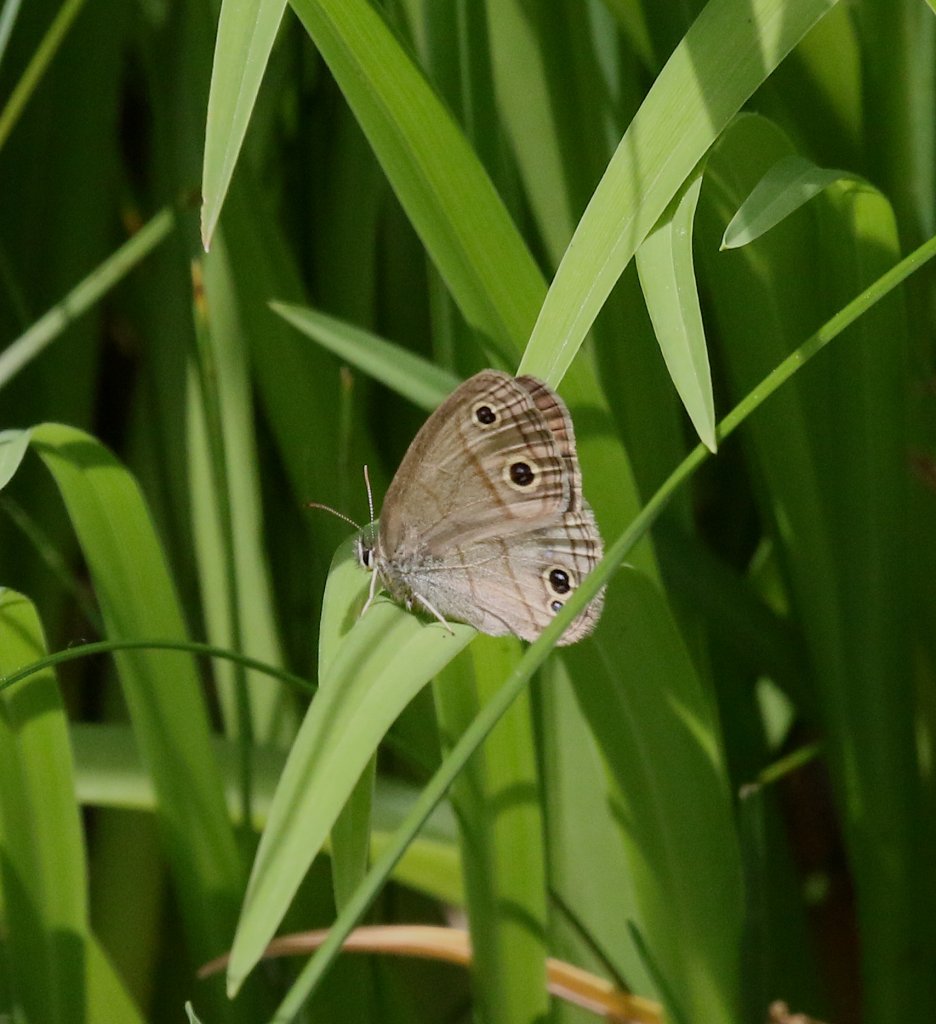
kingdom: Animalia
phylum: Arthropoda
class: Insecta
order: Lepidoptera
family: Nymphalidae
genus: Euptychia
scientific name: Euptychia cymela
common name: Little Wood Satyr
